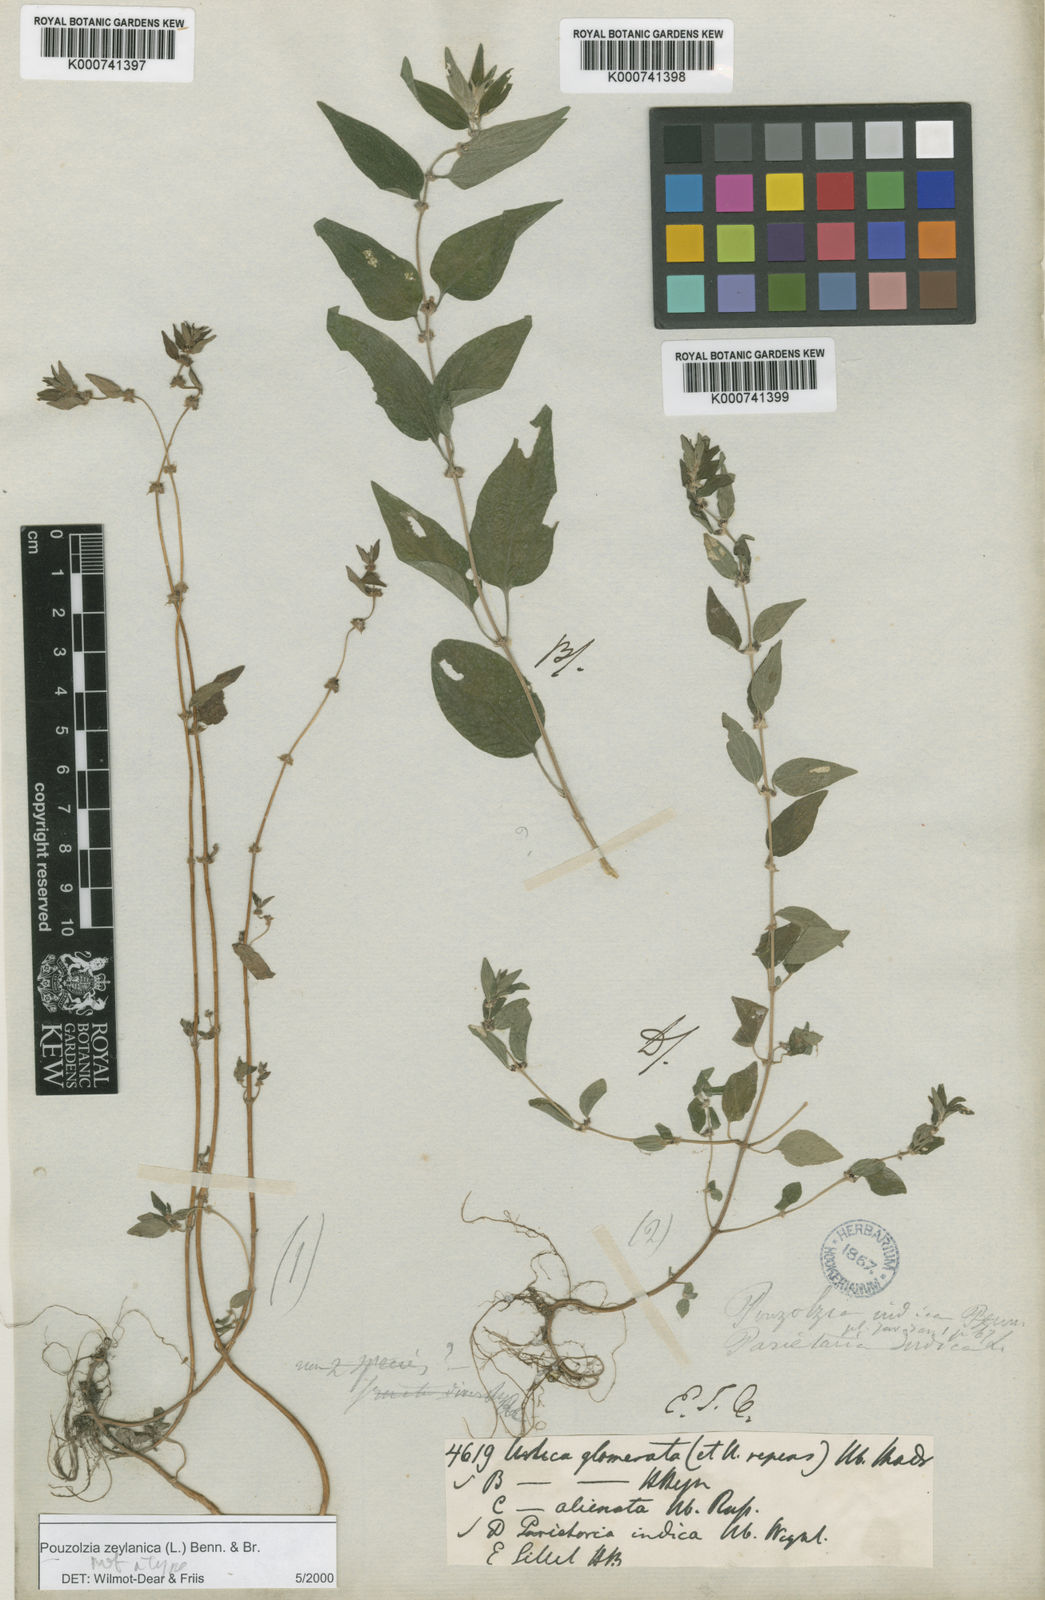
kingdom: Plantae
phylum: Tracheophyta
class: Magnoliopsida
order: Rosales
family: Urticaceae
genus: Pouzolzia
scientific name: Pouzolzia zeylanica
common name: Graceful pouzolzsbush
